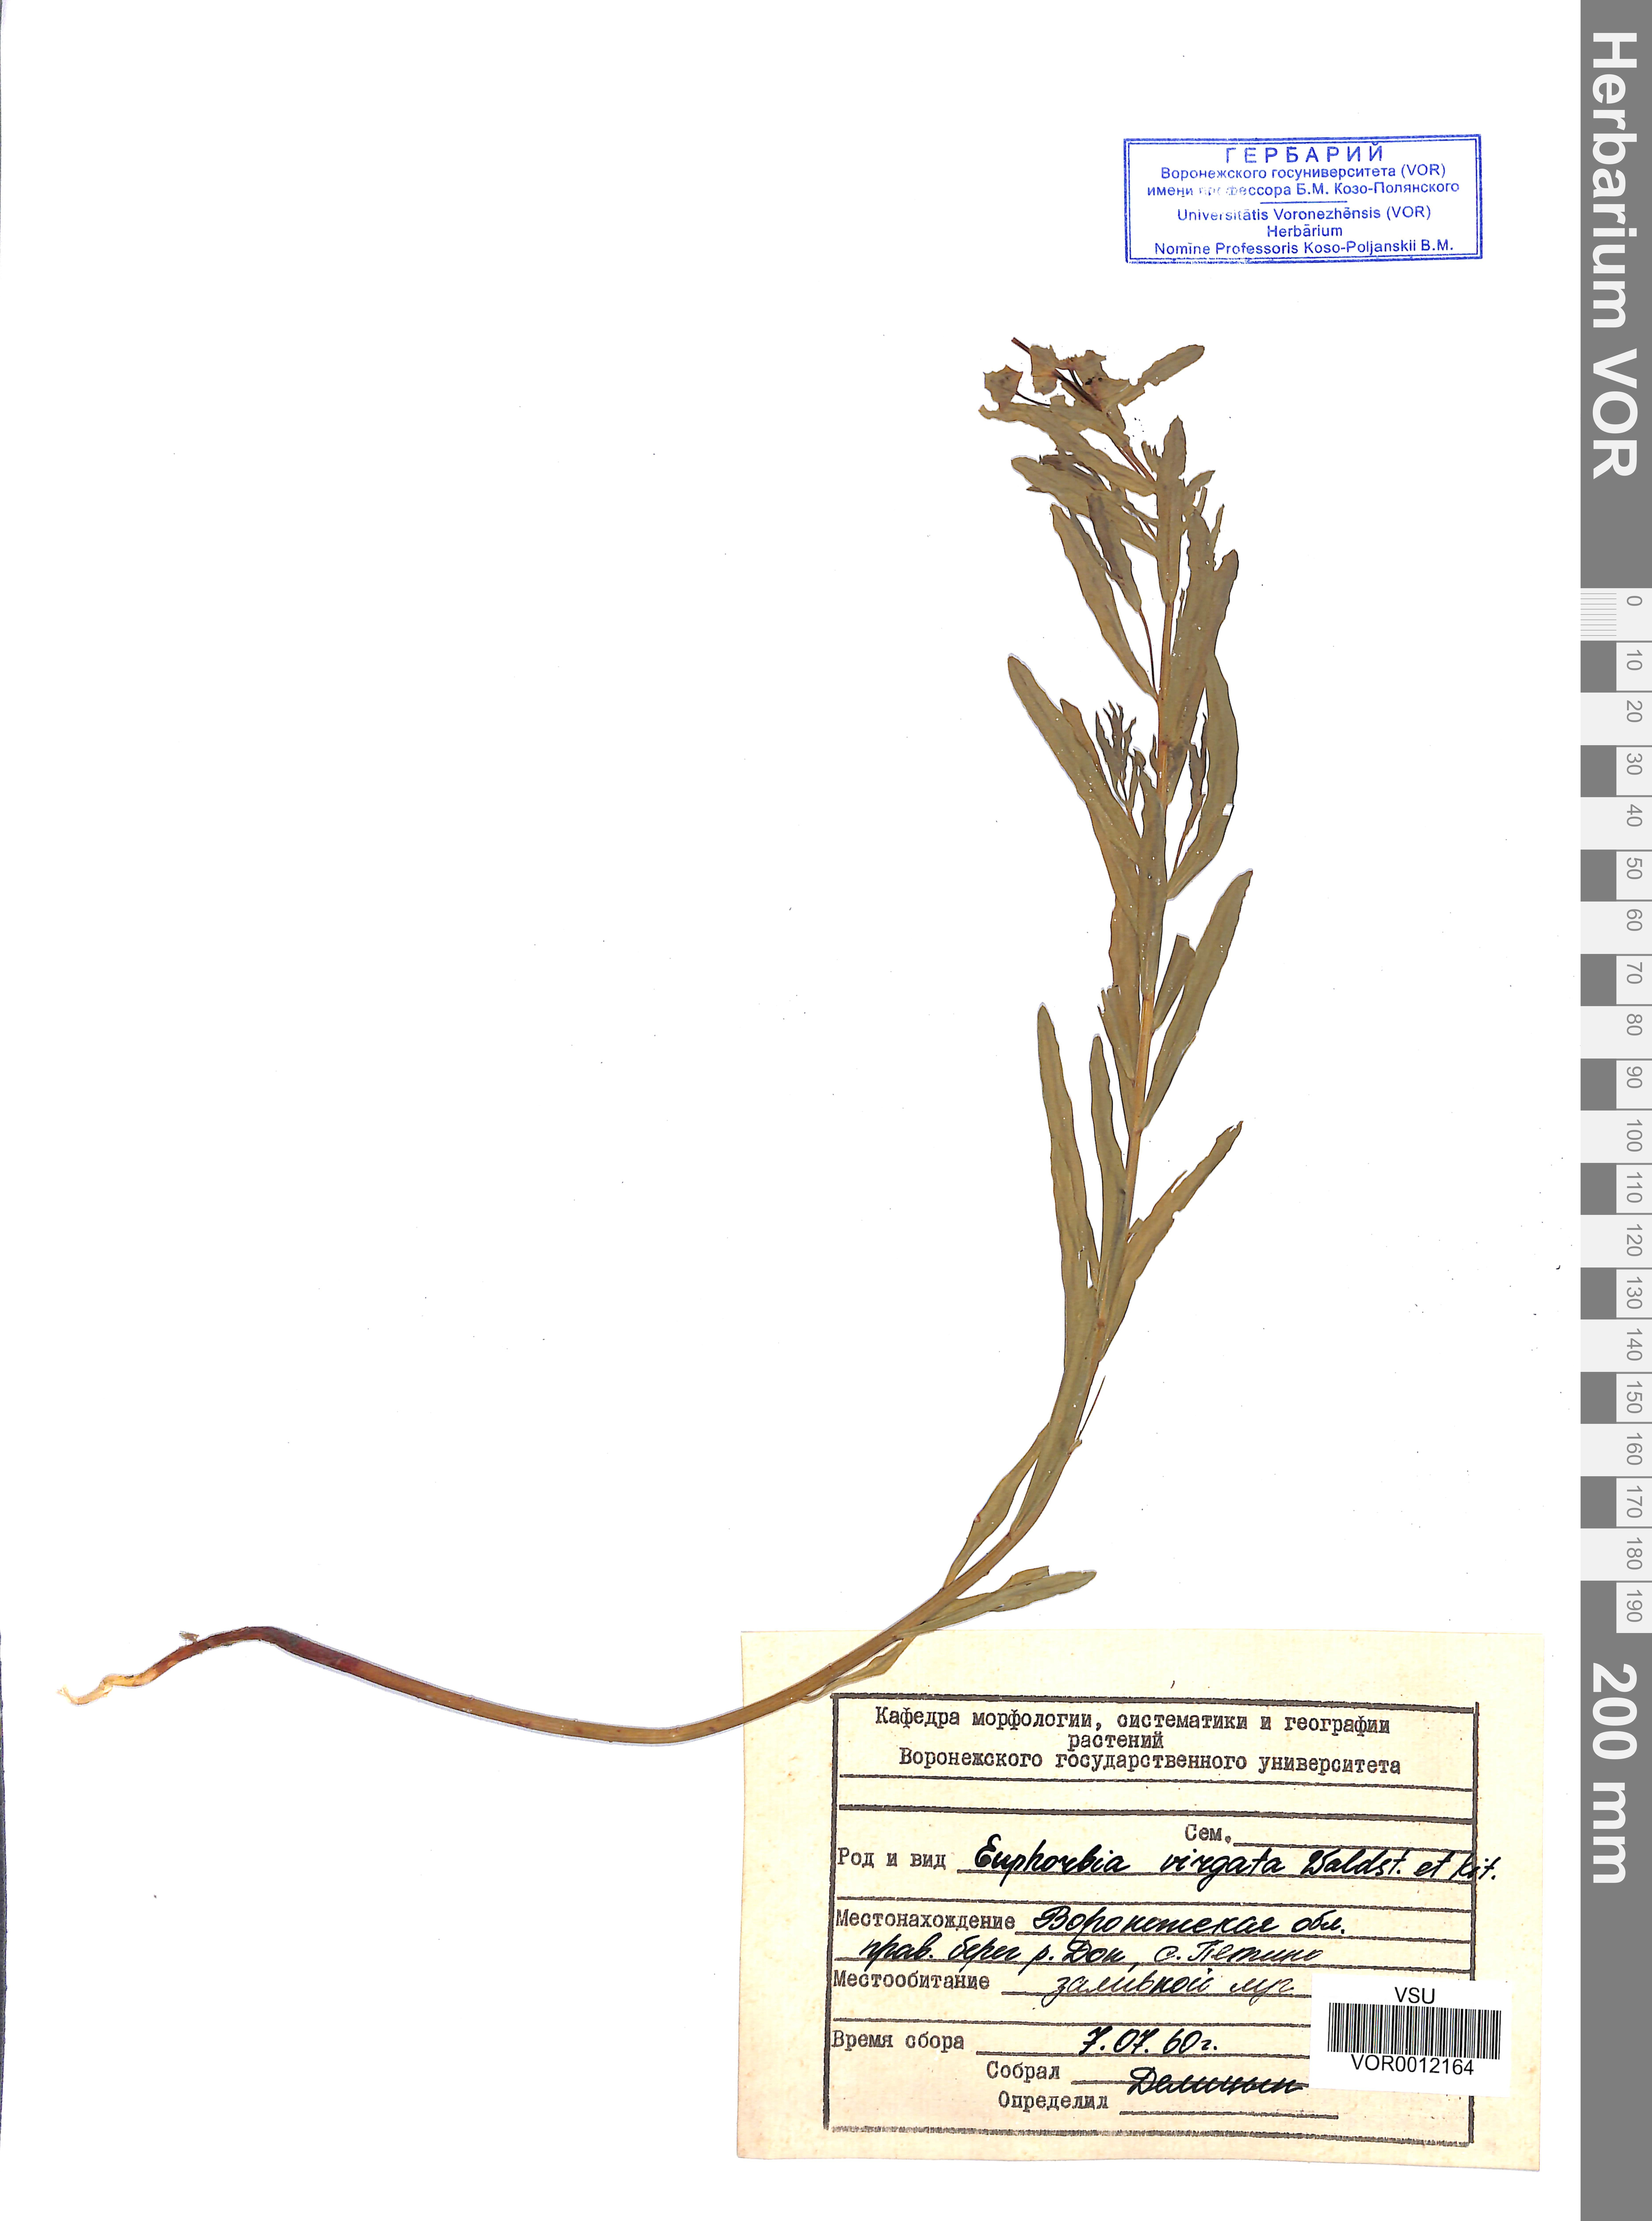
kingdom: Plantae
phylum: Tracheophyta
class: Magnoliopsida
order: Malpighiales
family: Euphorbiaceae
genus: Euphorbia
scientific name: Euphorbia virgata
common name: Leafy spurge
